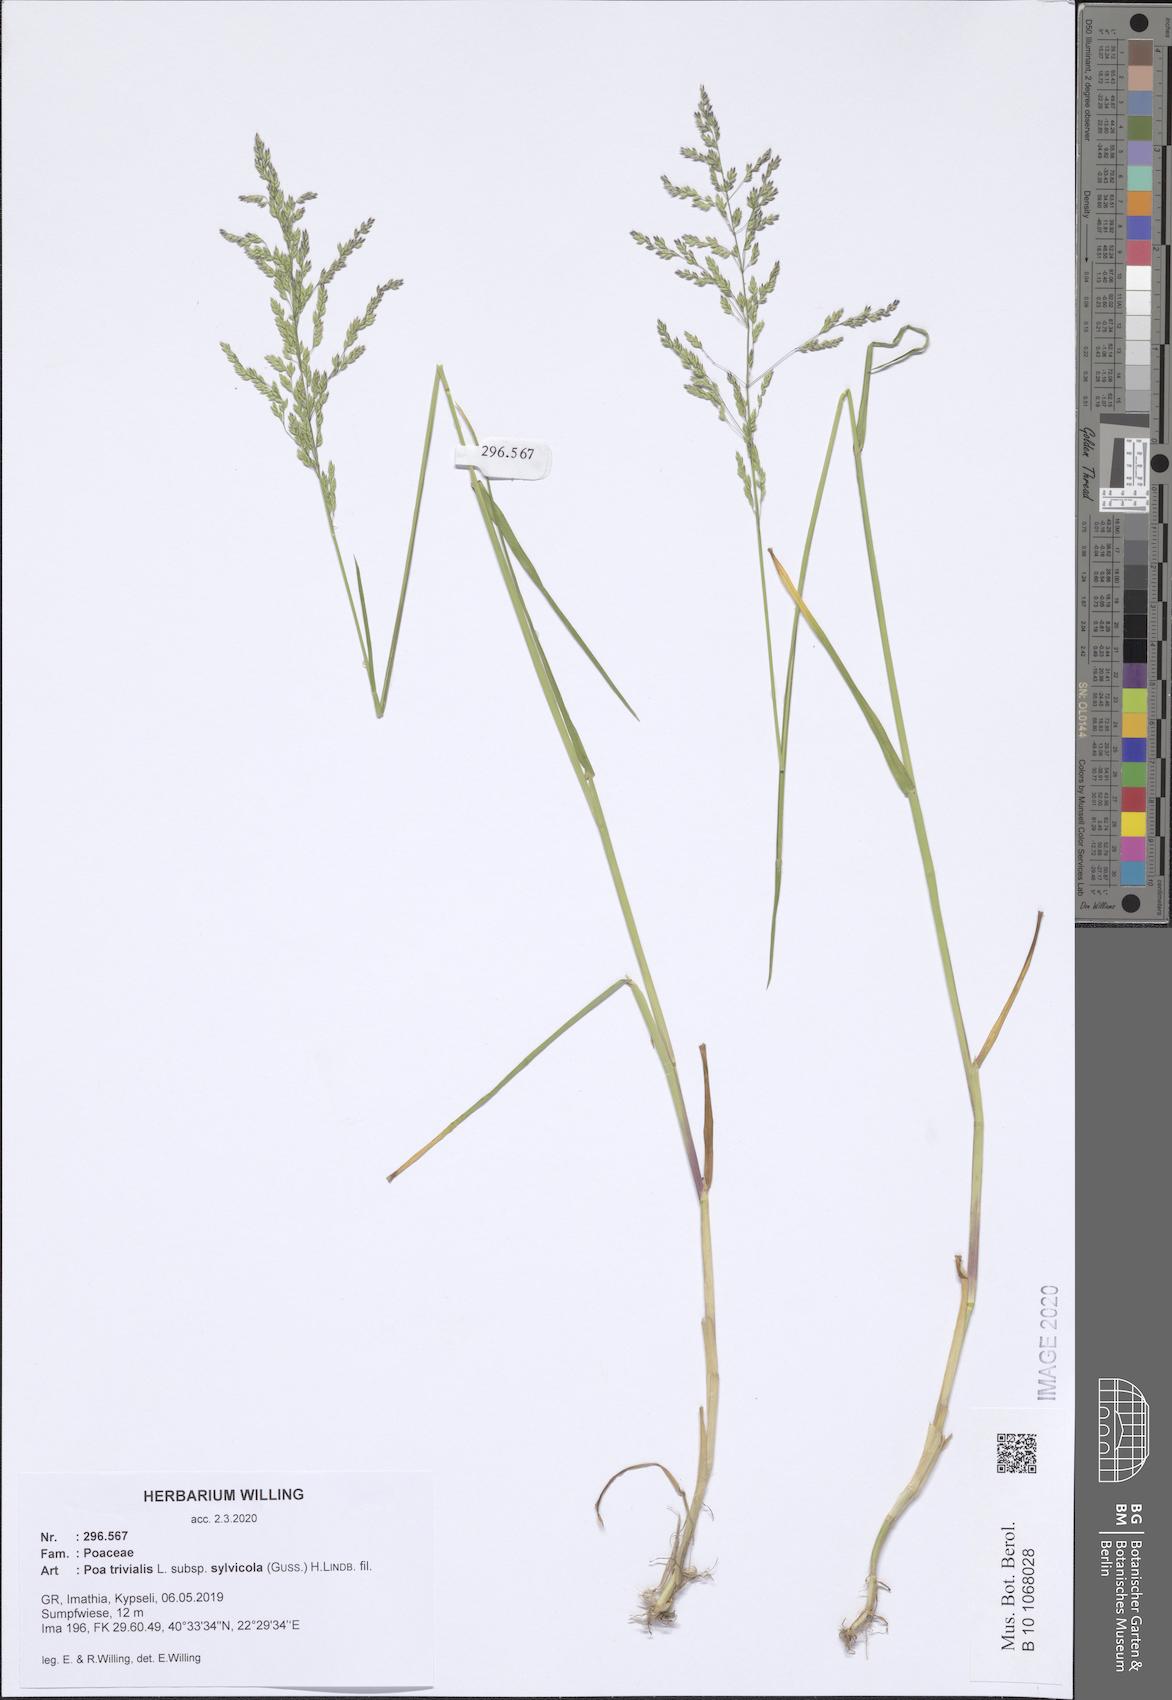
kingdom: Plantae
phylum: Tracheophyta
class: Liliopsida
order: Poales
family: Poaceae
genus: Poa
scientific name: Poa trivialis
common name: Rough bluegrass
